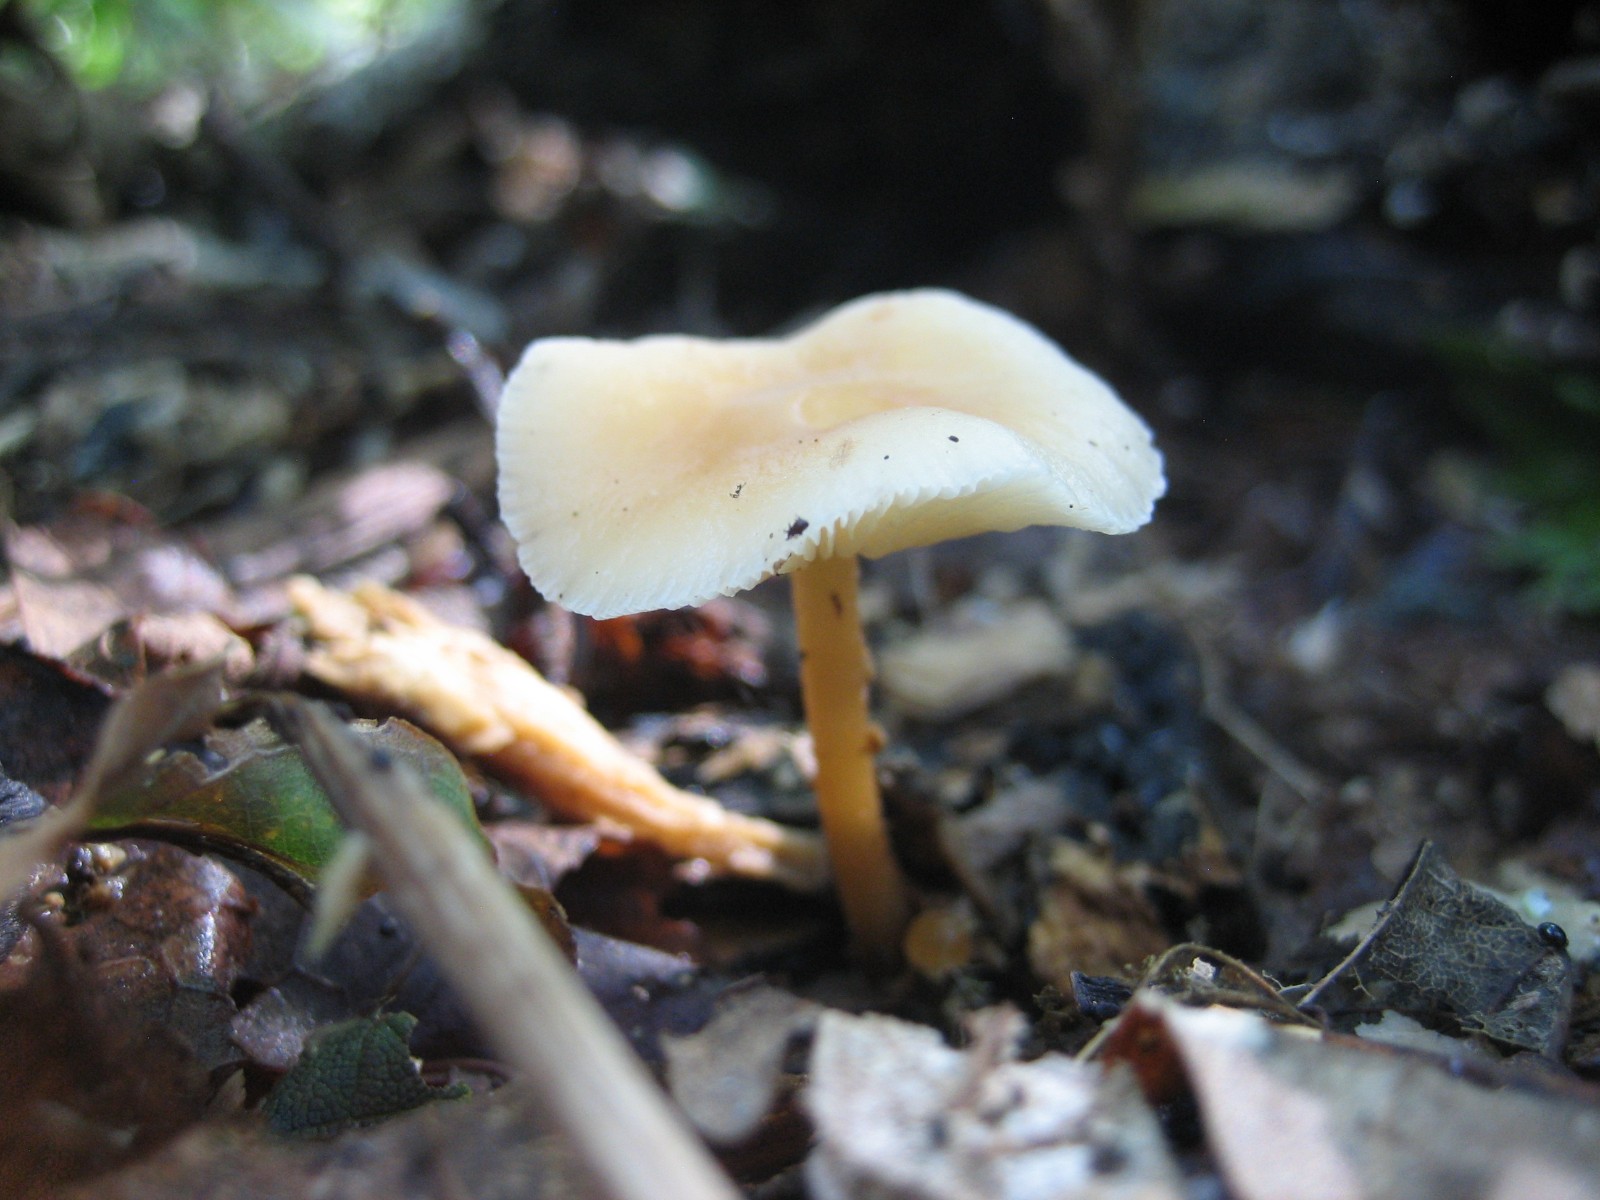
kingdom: Fungi
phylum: Basidiomycota
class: Agaricomycetes
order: Agaricales
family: Omphalotaceae
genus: Gymnopus
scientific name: Gymnopus dryophilus
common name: løv-fladhat
